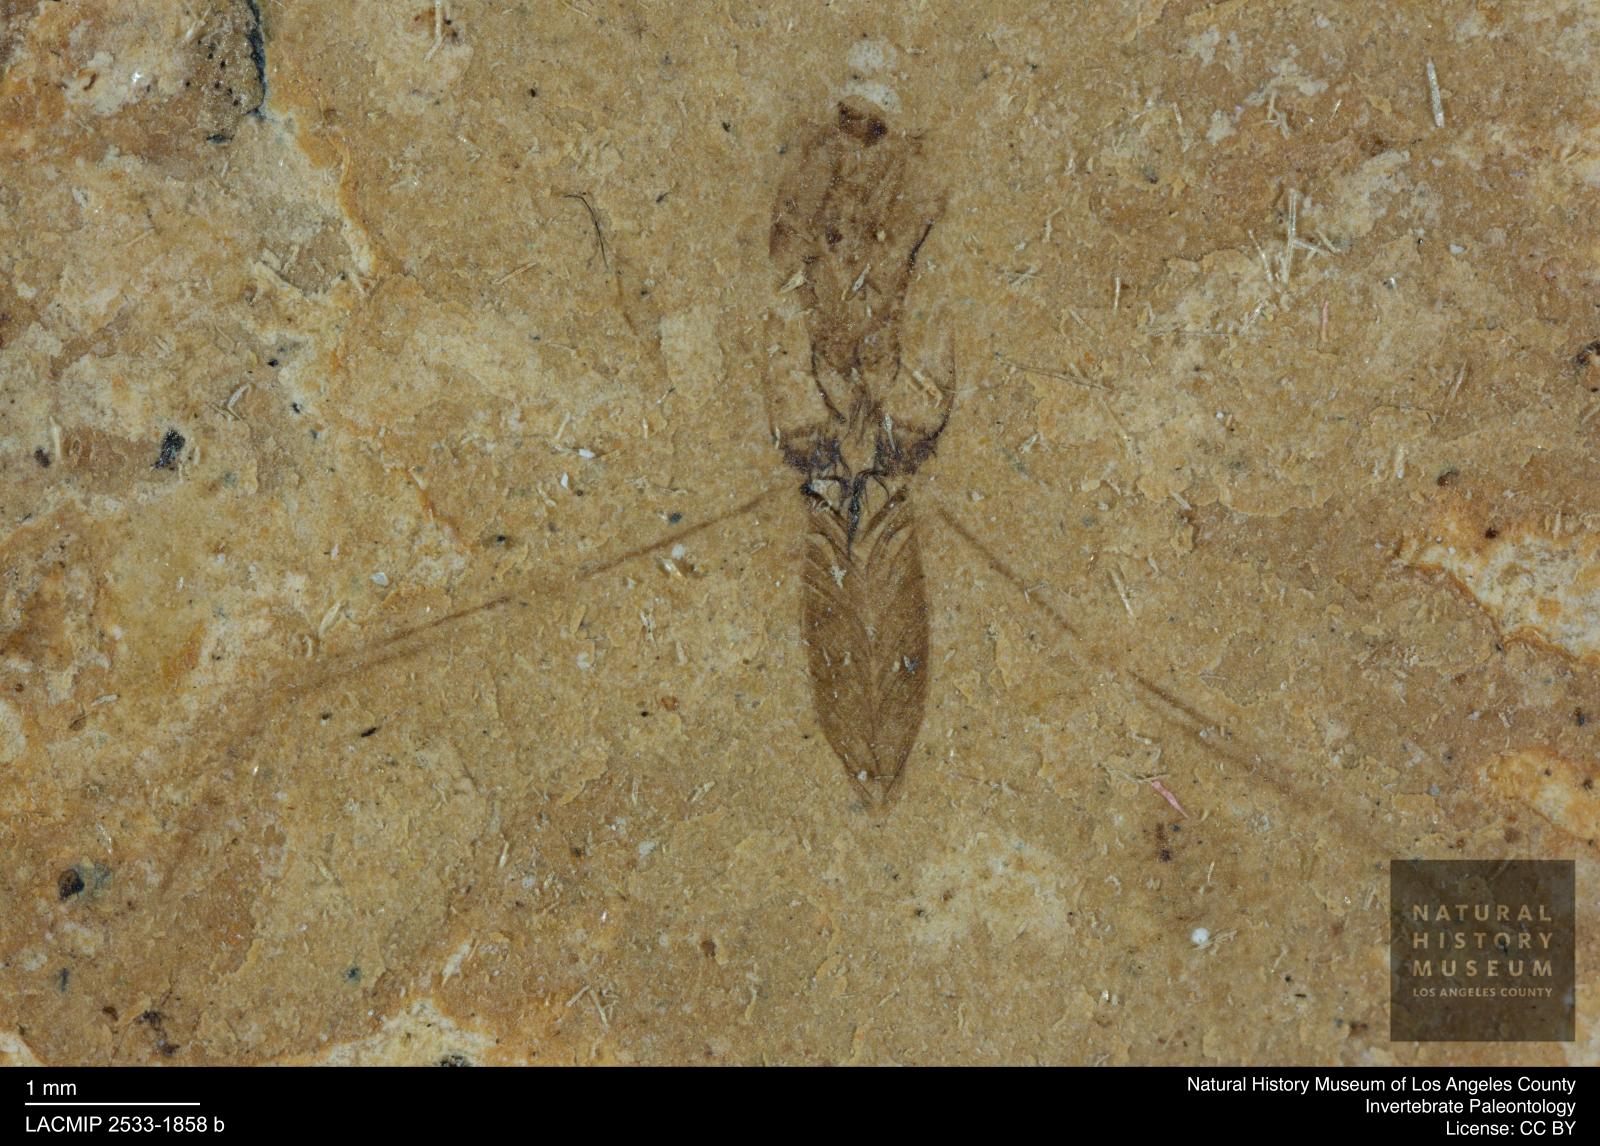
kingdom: Animalia
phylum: Arthropoda
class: Insecta
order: Hemiptera
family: Notonectidae
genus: Notonecta
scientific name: Notonecta
